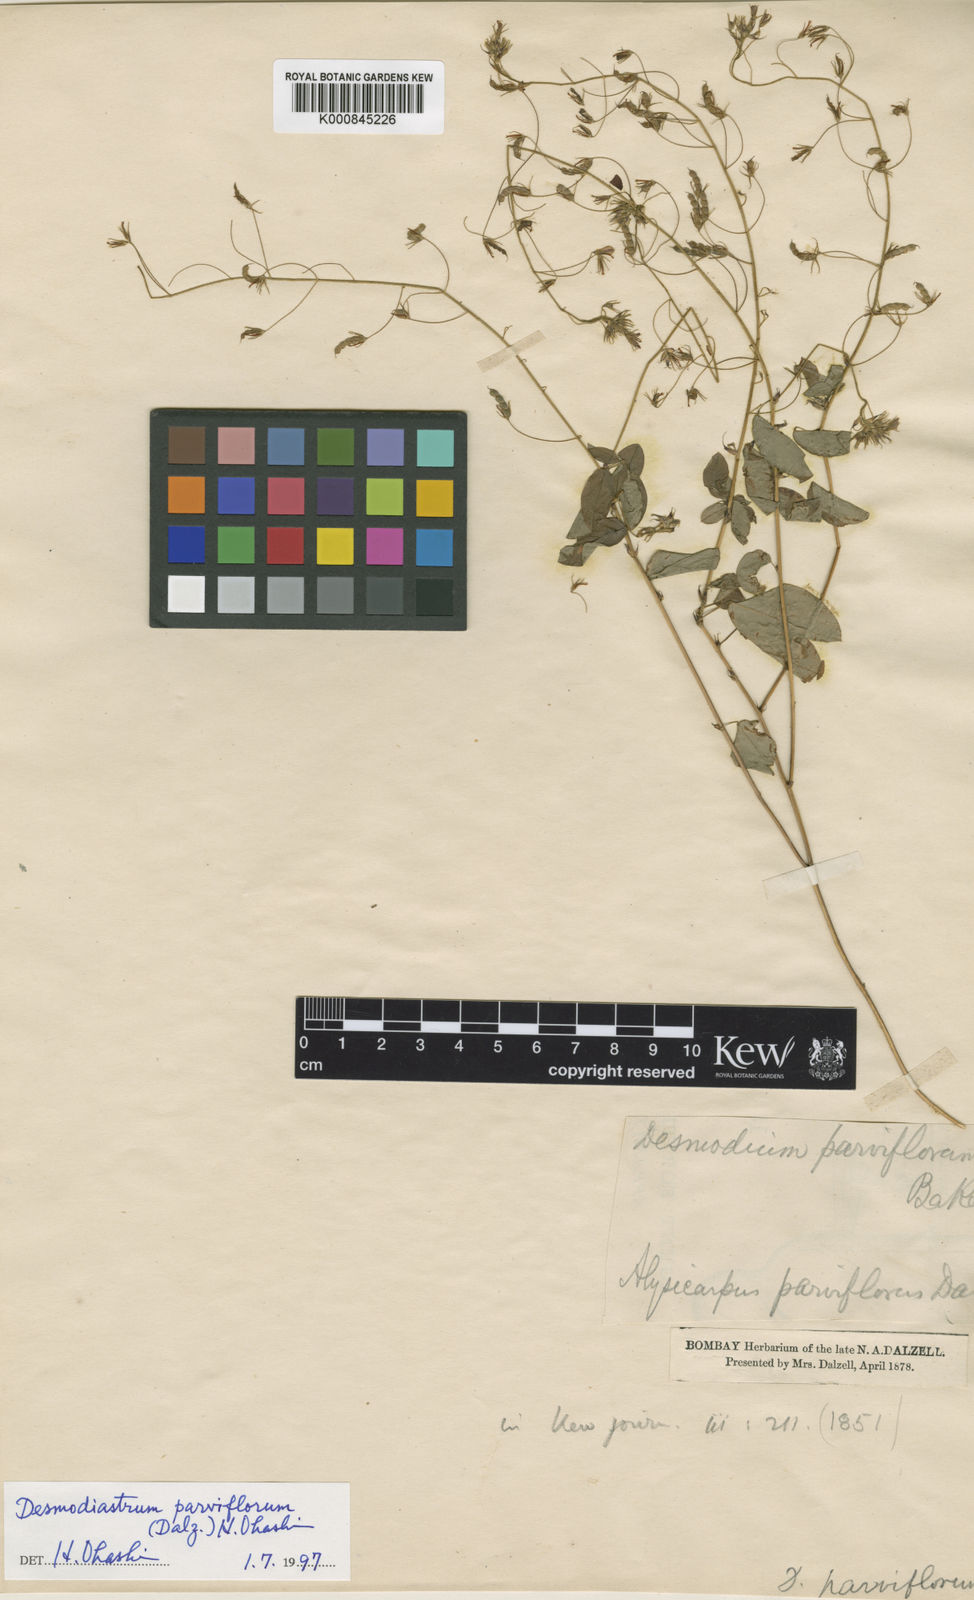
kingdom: Plantae
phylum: Tracheophyta
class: Magnoliopsida
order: Fabales
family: Fabaceae
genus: Alysicarpus
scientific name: Alysicarpus parviflorus
